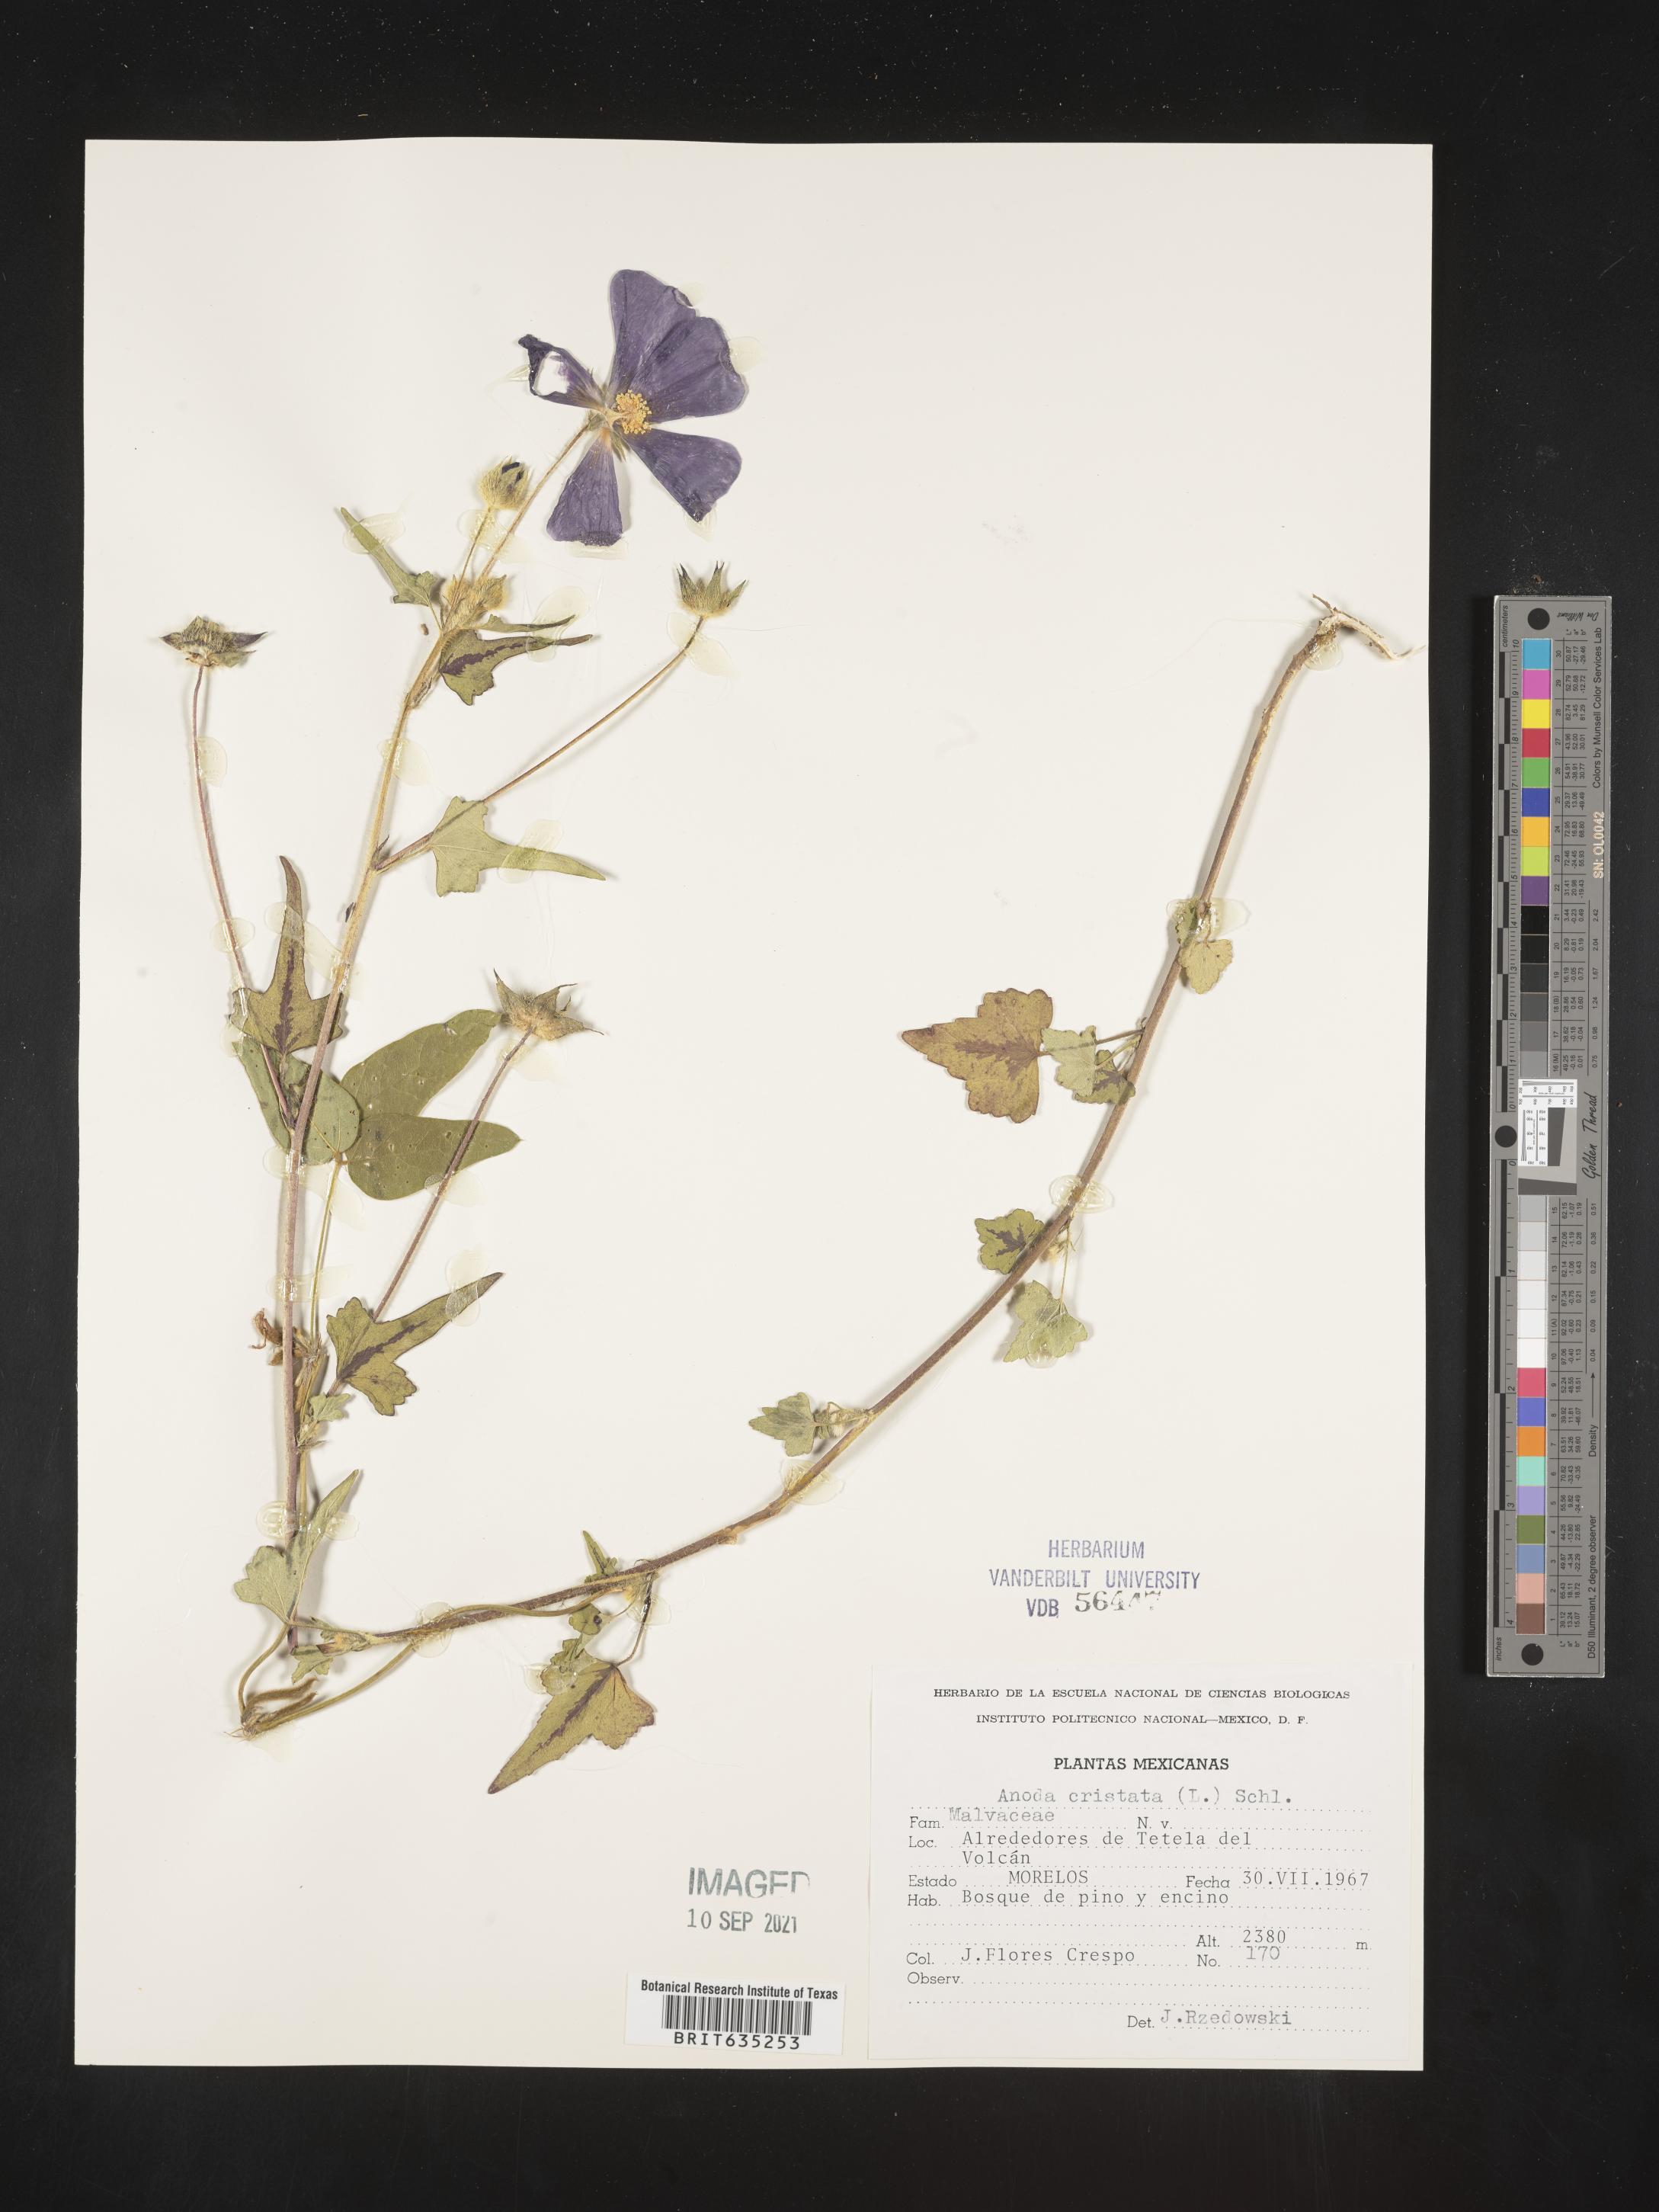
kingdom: Plantae
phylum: Tracheophyta
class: Magnoliopsida
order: Malvales
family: Malvaceae
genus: Anoda
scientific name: Anoda
